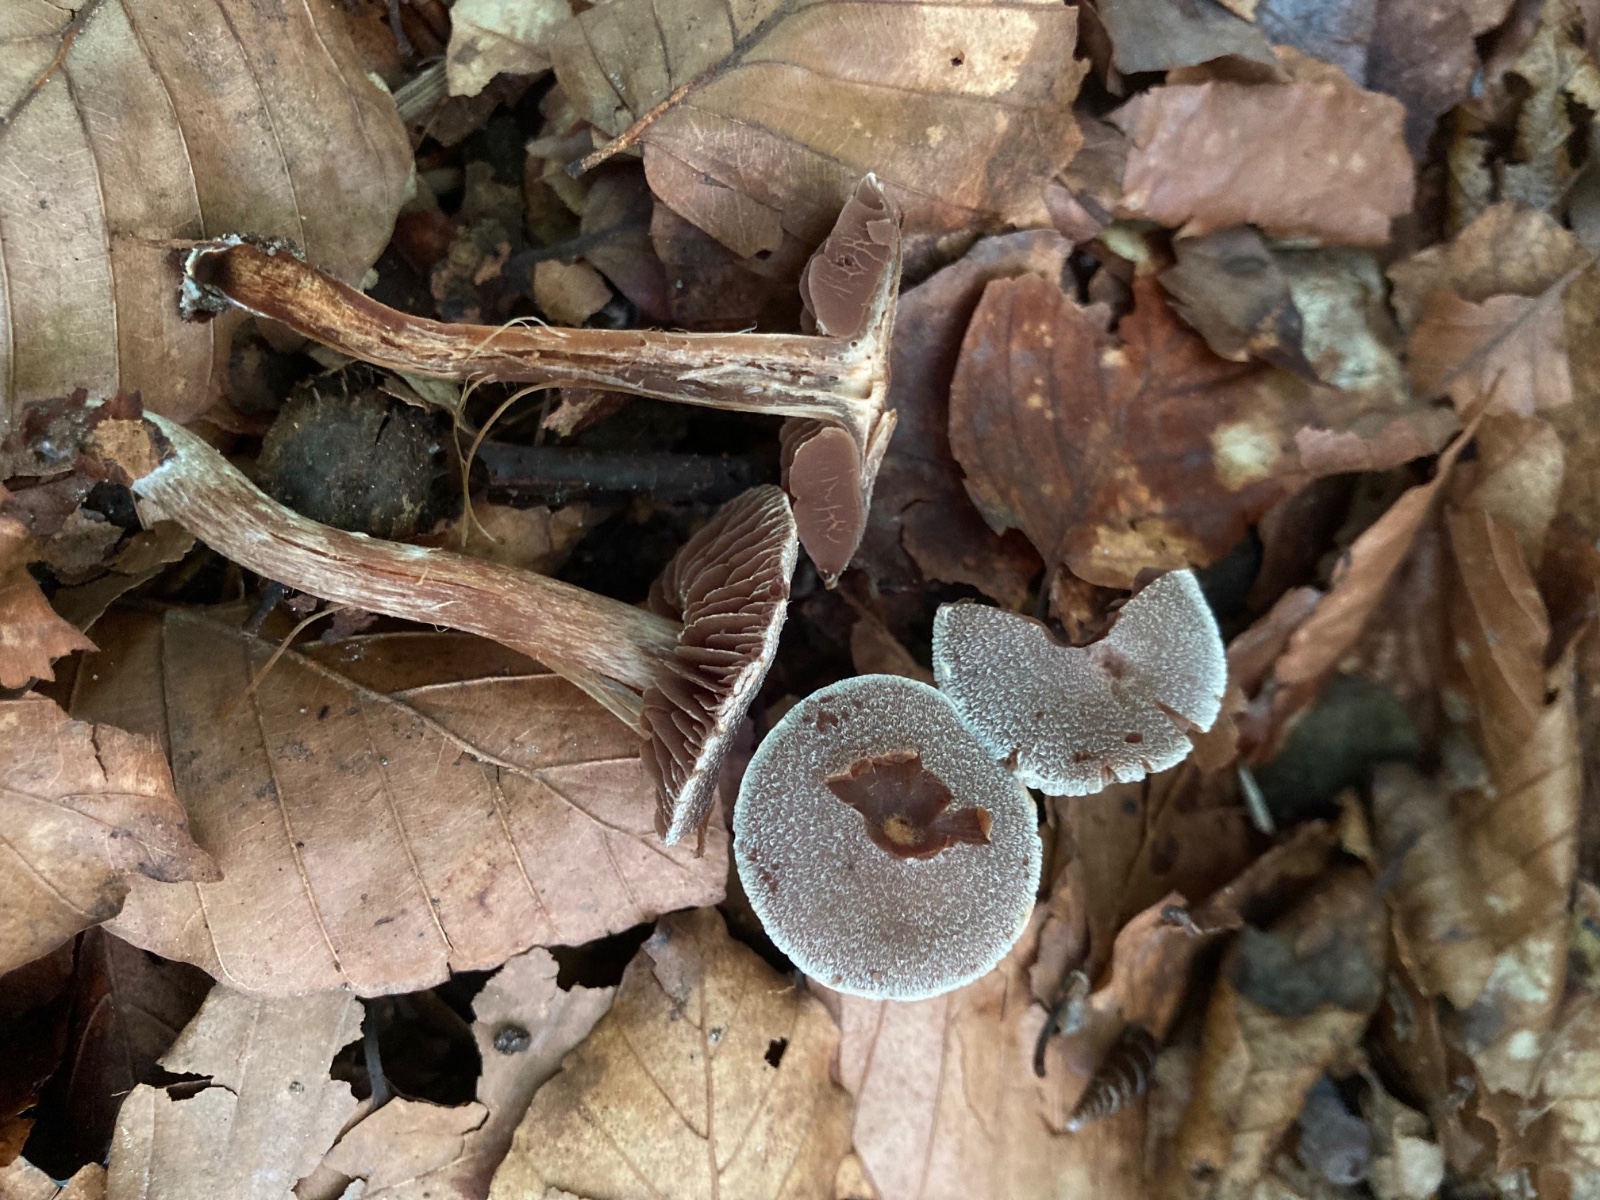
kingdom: Fungi
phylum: Basidiomycota
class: Agaricomycetes
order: Agaricales
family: Cortinariaceae
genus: Cortinarius
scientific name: Cortinarius geraniolens
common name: geranium-slørhat
